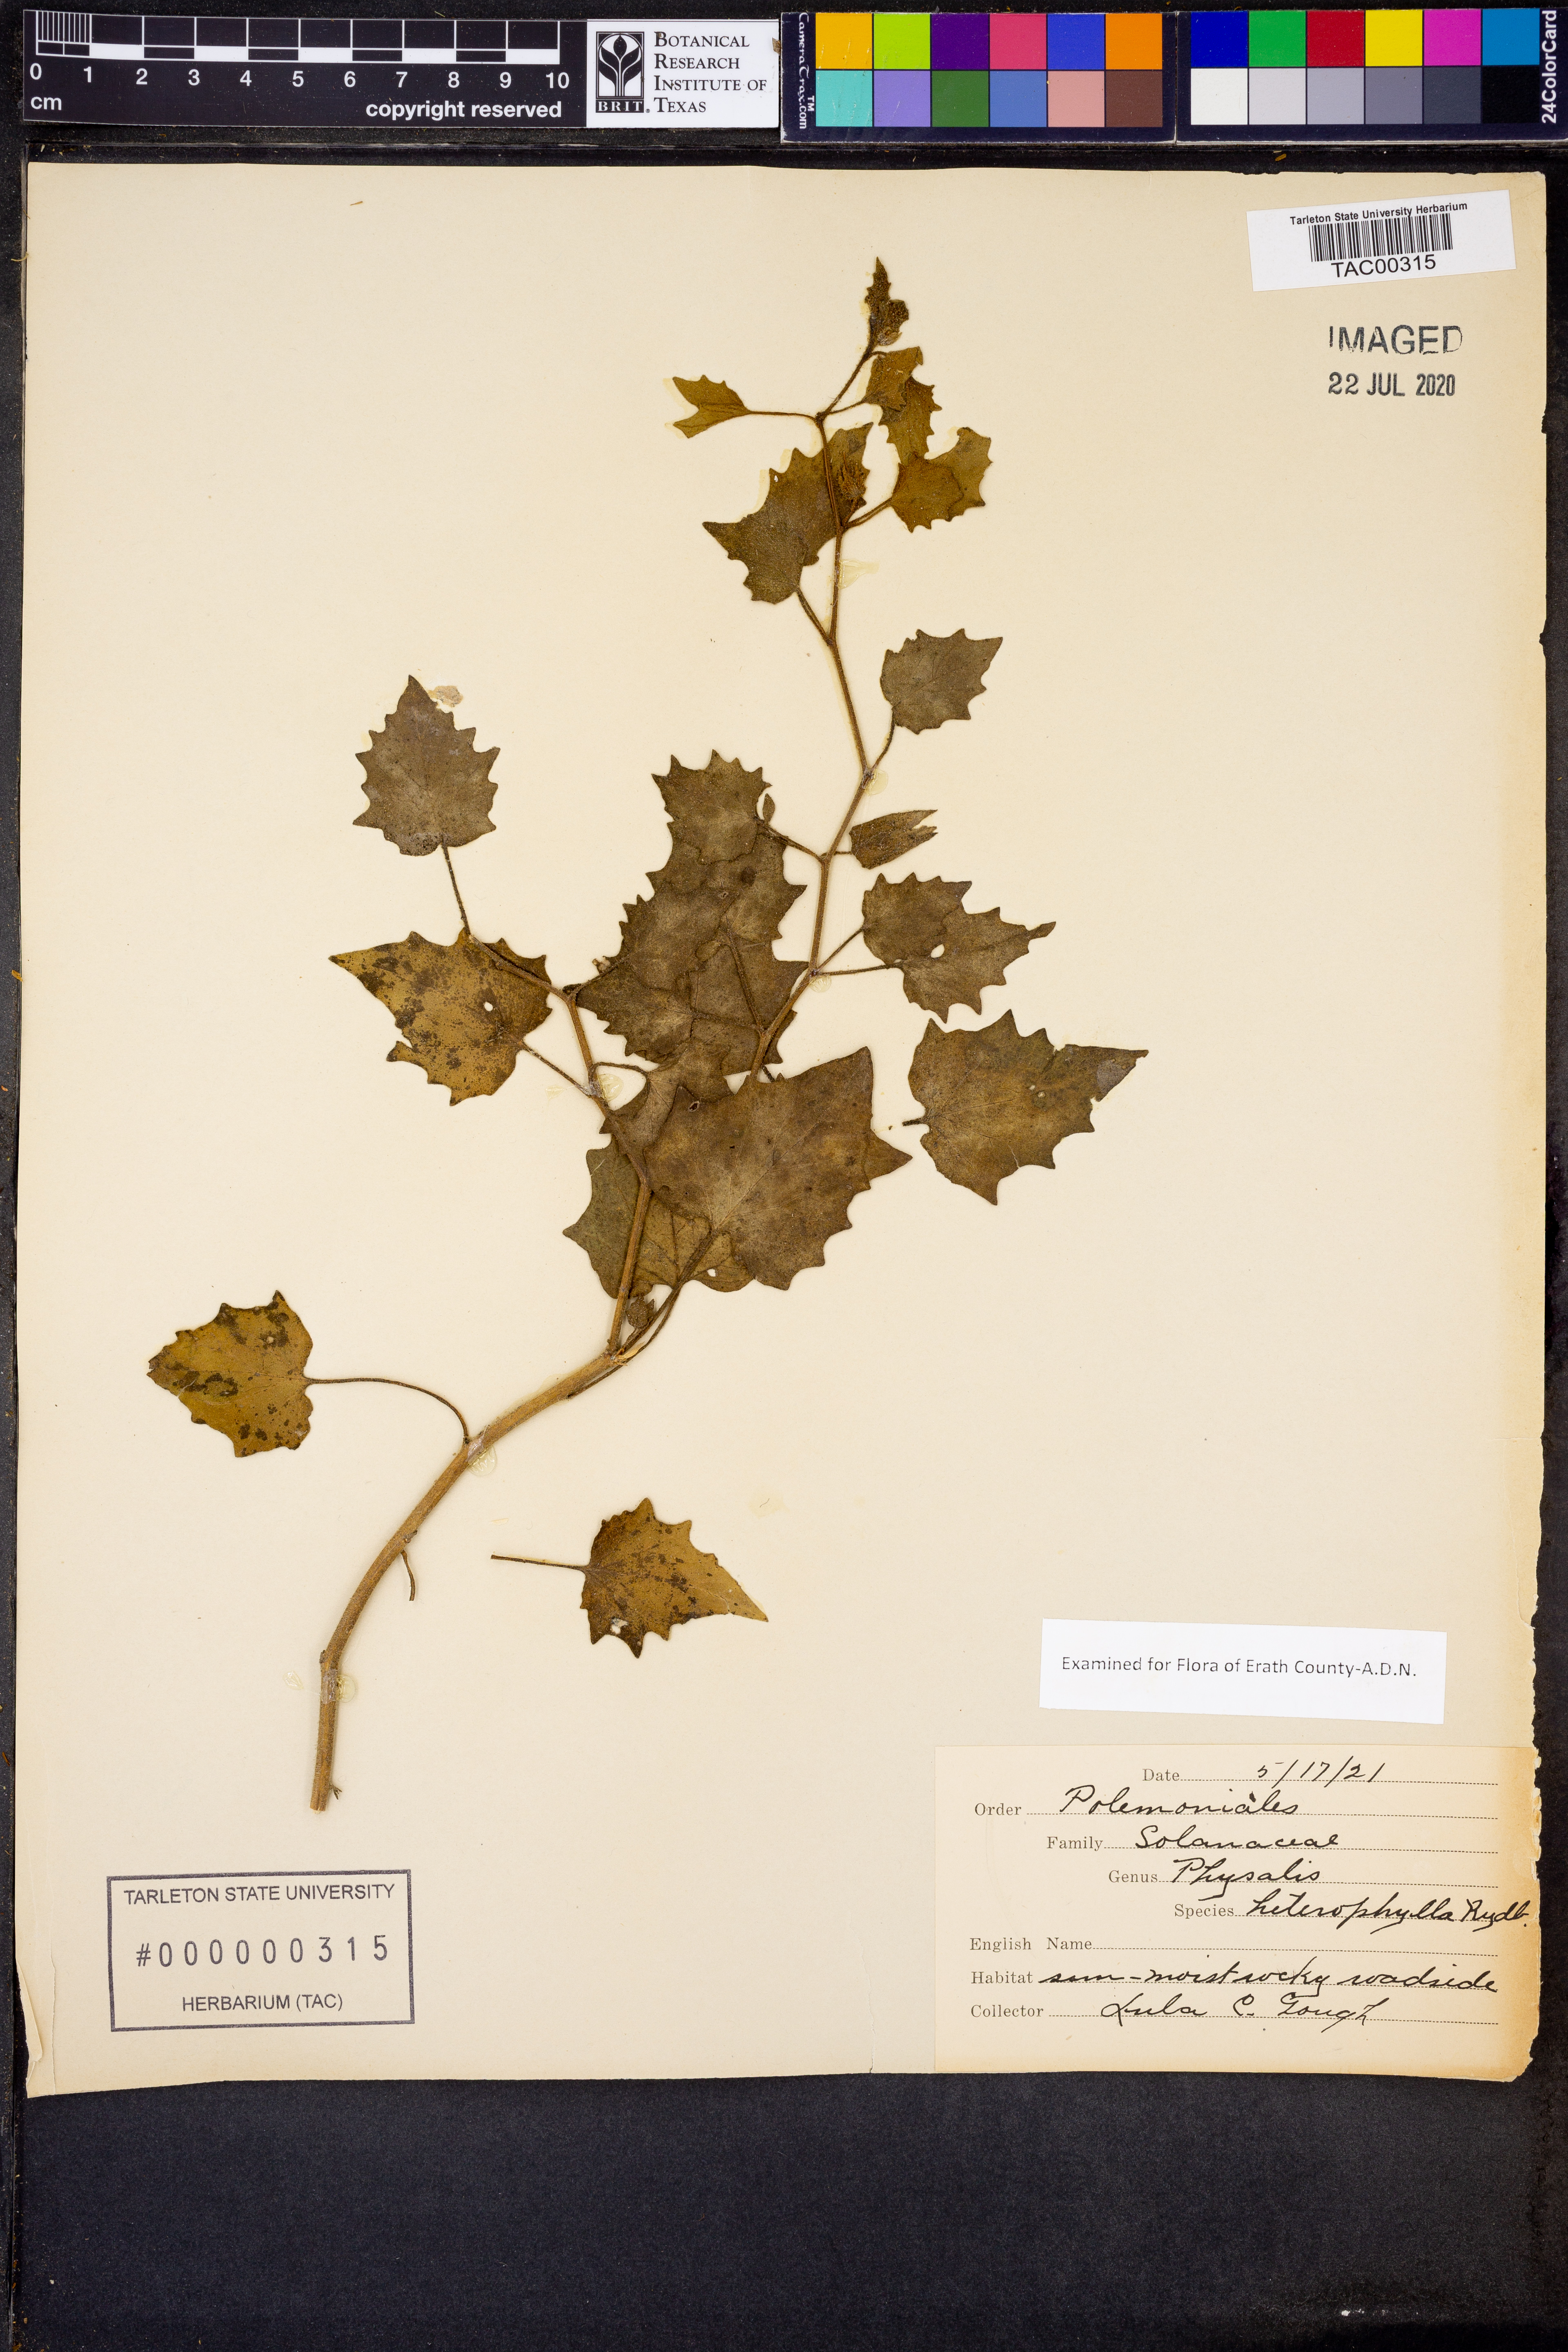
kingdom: Plantae
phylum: Tracheophyta
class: Magnoliopsida
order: Solanales
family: Solanaceae
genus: Physalis
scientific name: Physalis heterophylla
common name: Clammy ground-cherry
